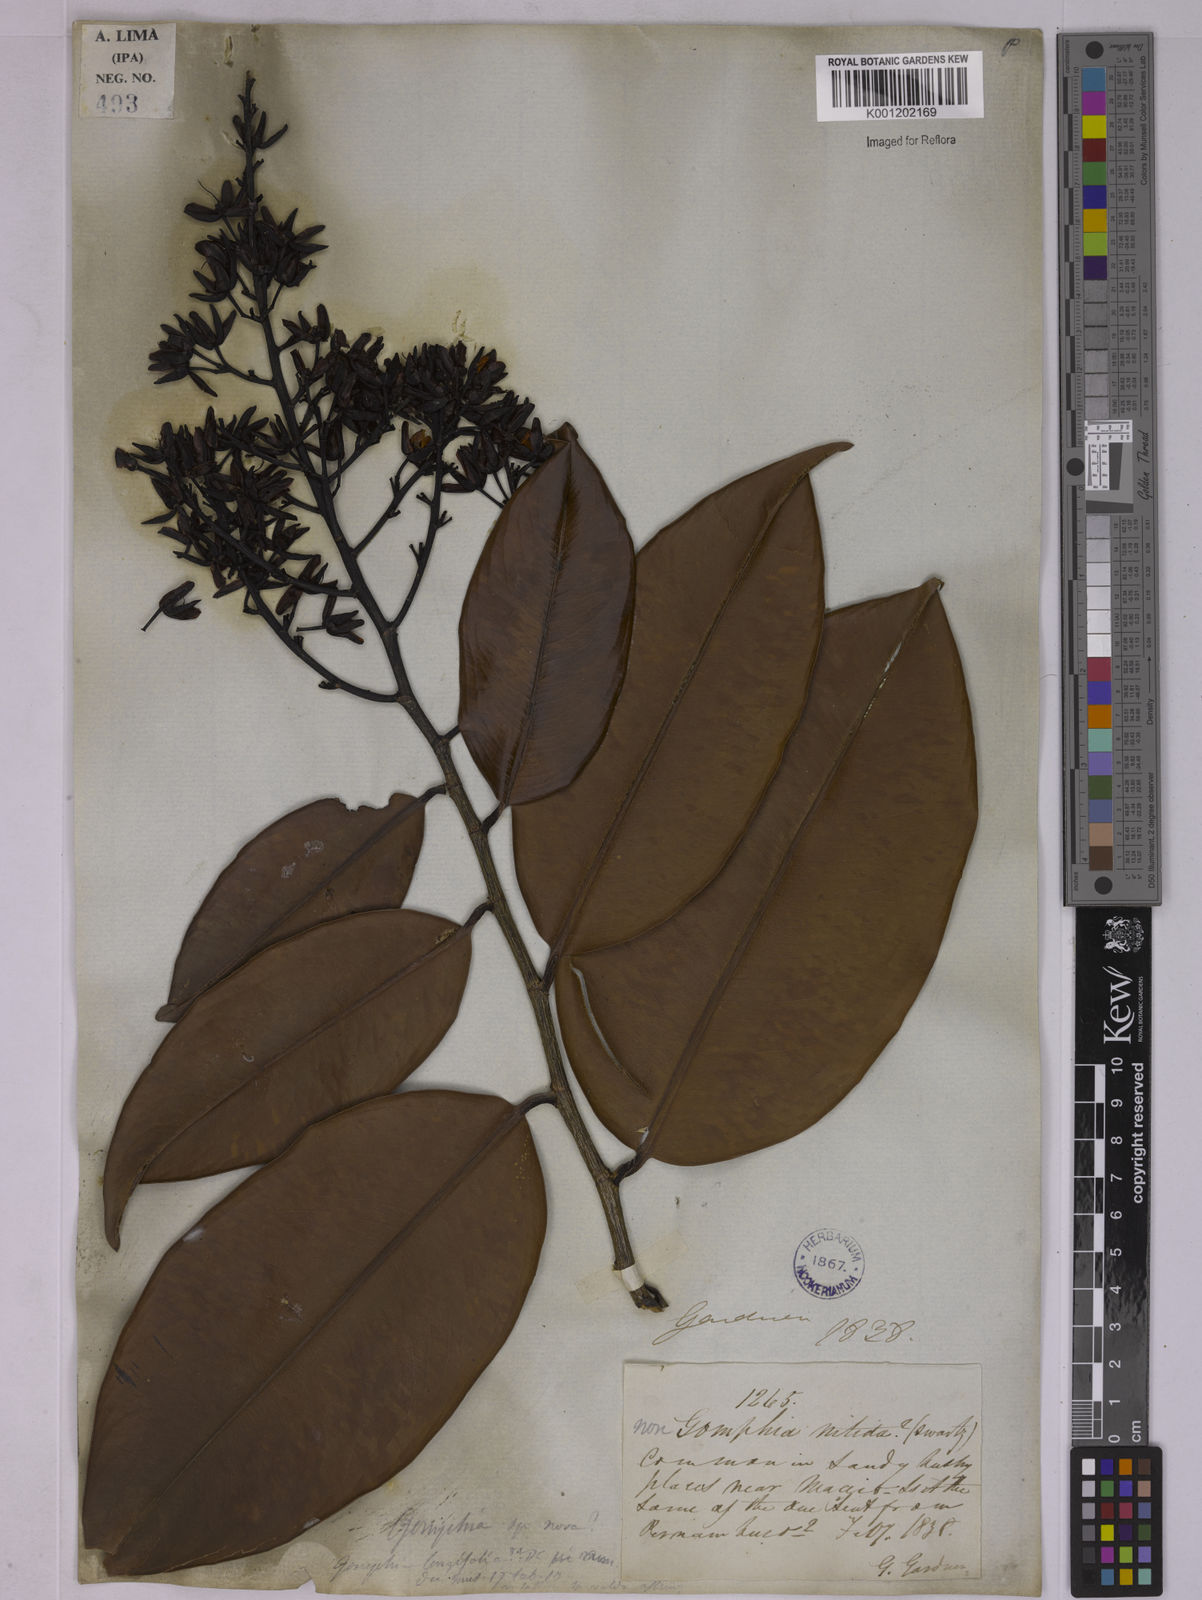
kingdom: Plantae
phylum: Tracheophyta
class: Magnoliopsida
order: Malpighiales
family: Ochnaceae
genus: Ouratea
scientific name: Ouratea
